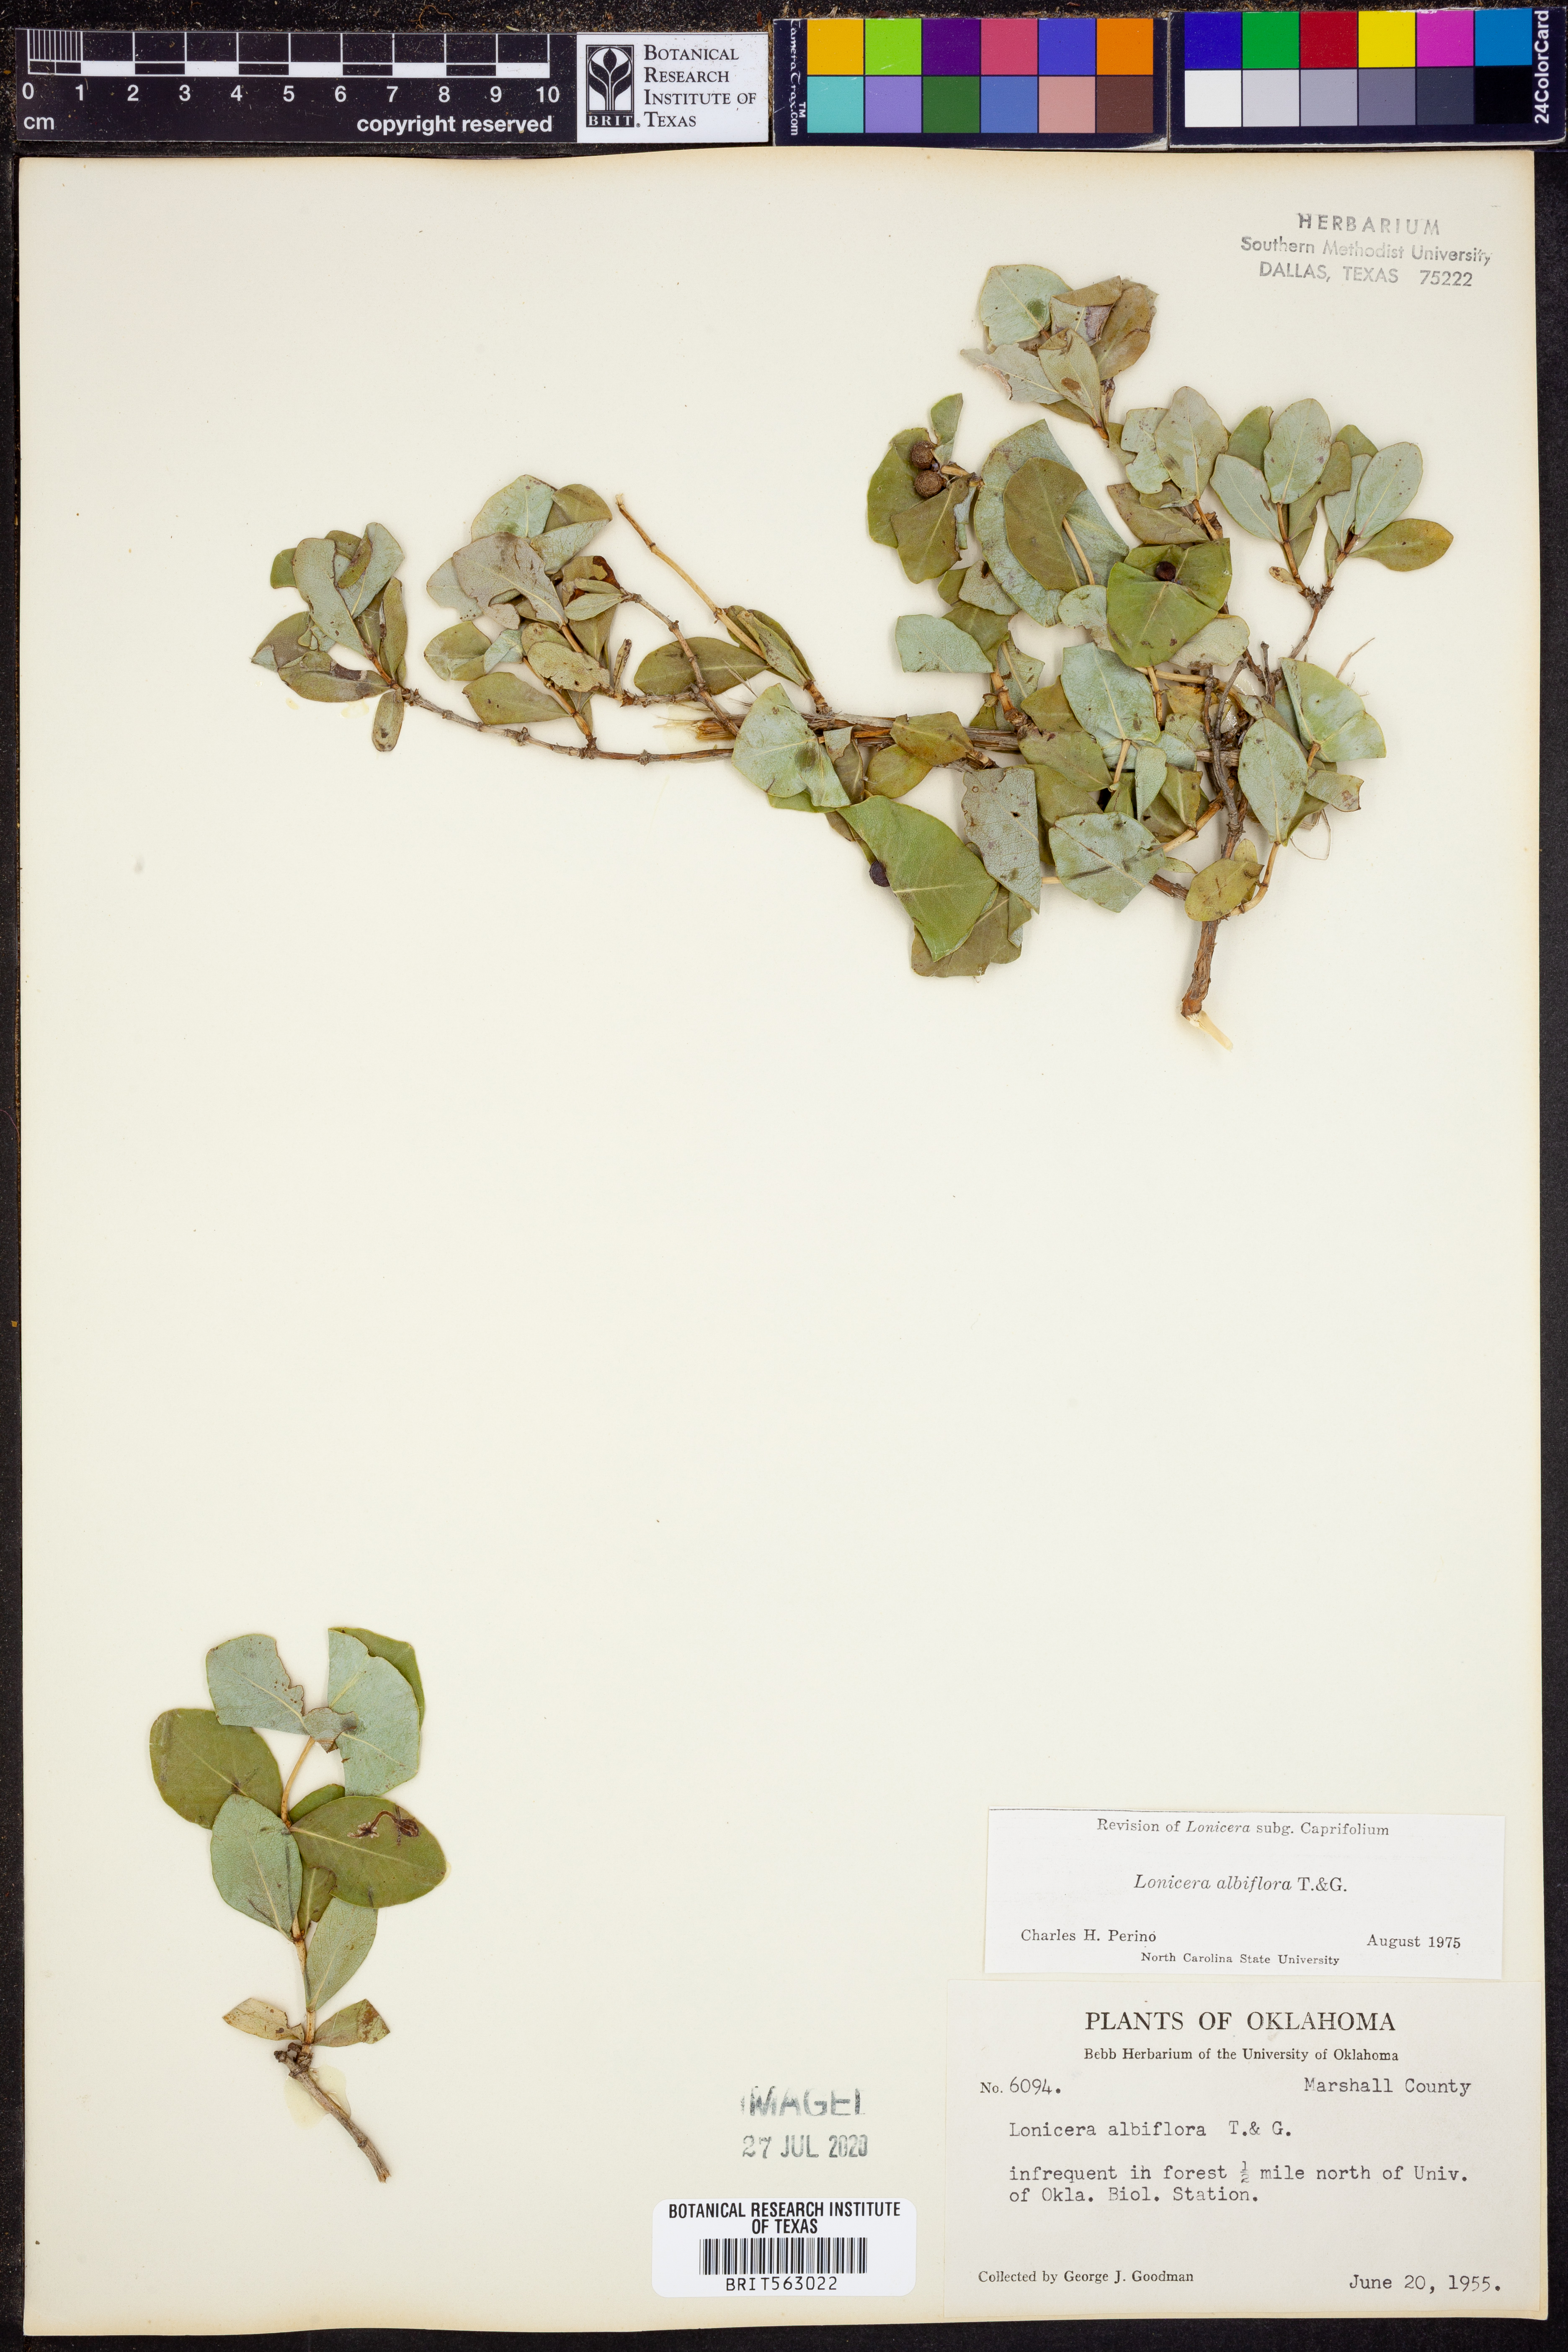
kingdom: Plantae
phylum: Tracheophyta
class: Magnoliopsida
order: Dipsacales
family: Caprifoliaceae
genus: Lonicera
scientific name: Lonicera albiflora
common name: White honeysuckle
